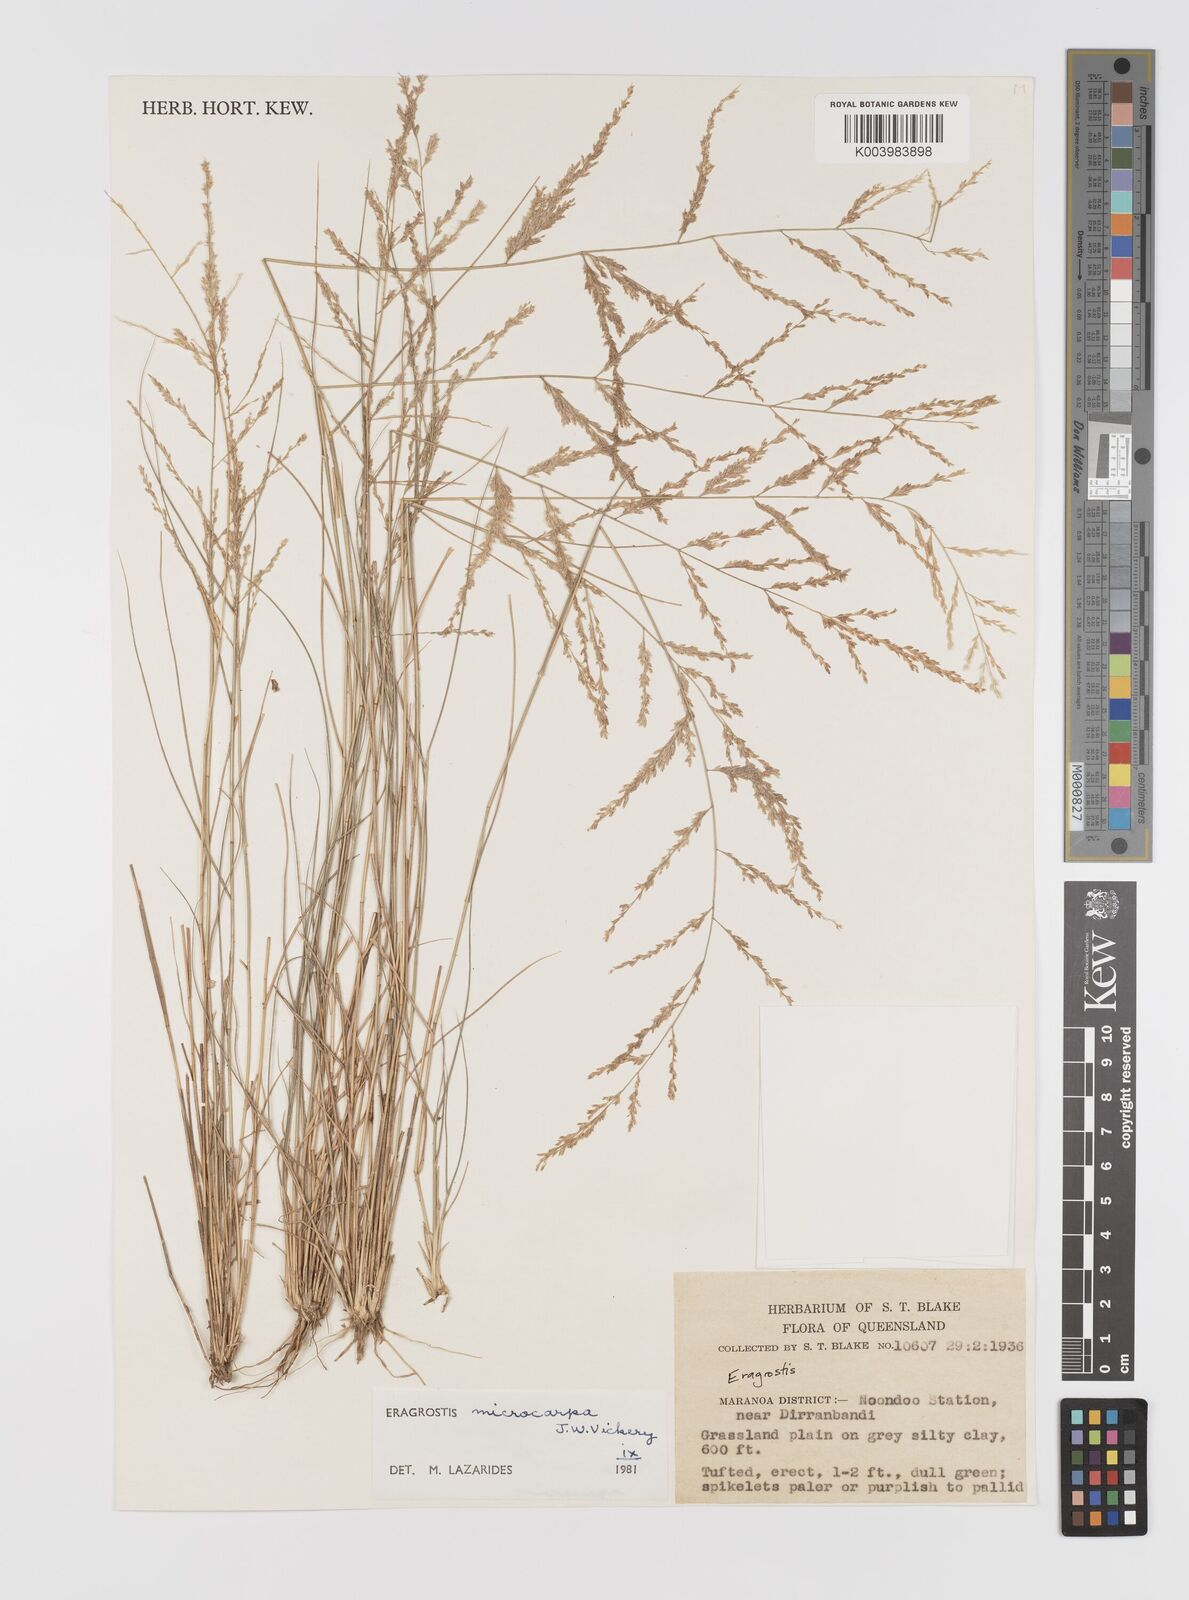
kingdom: Plantae
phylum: Tracheophyta
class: Liliopsida
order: Poales
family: Poaceae
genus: Eragrostis
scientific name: Eragrostis microcarpa
